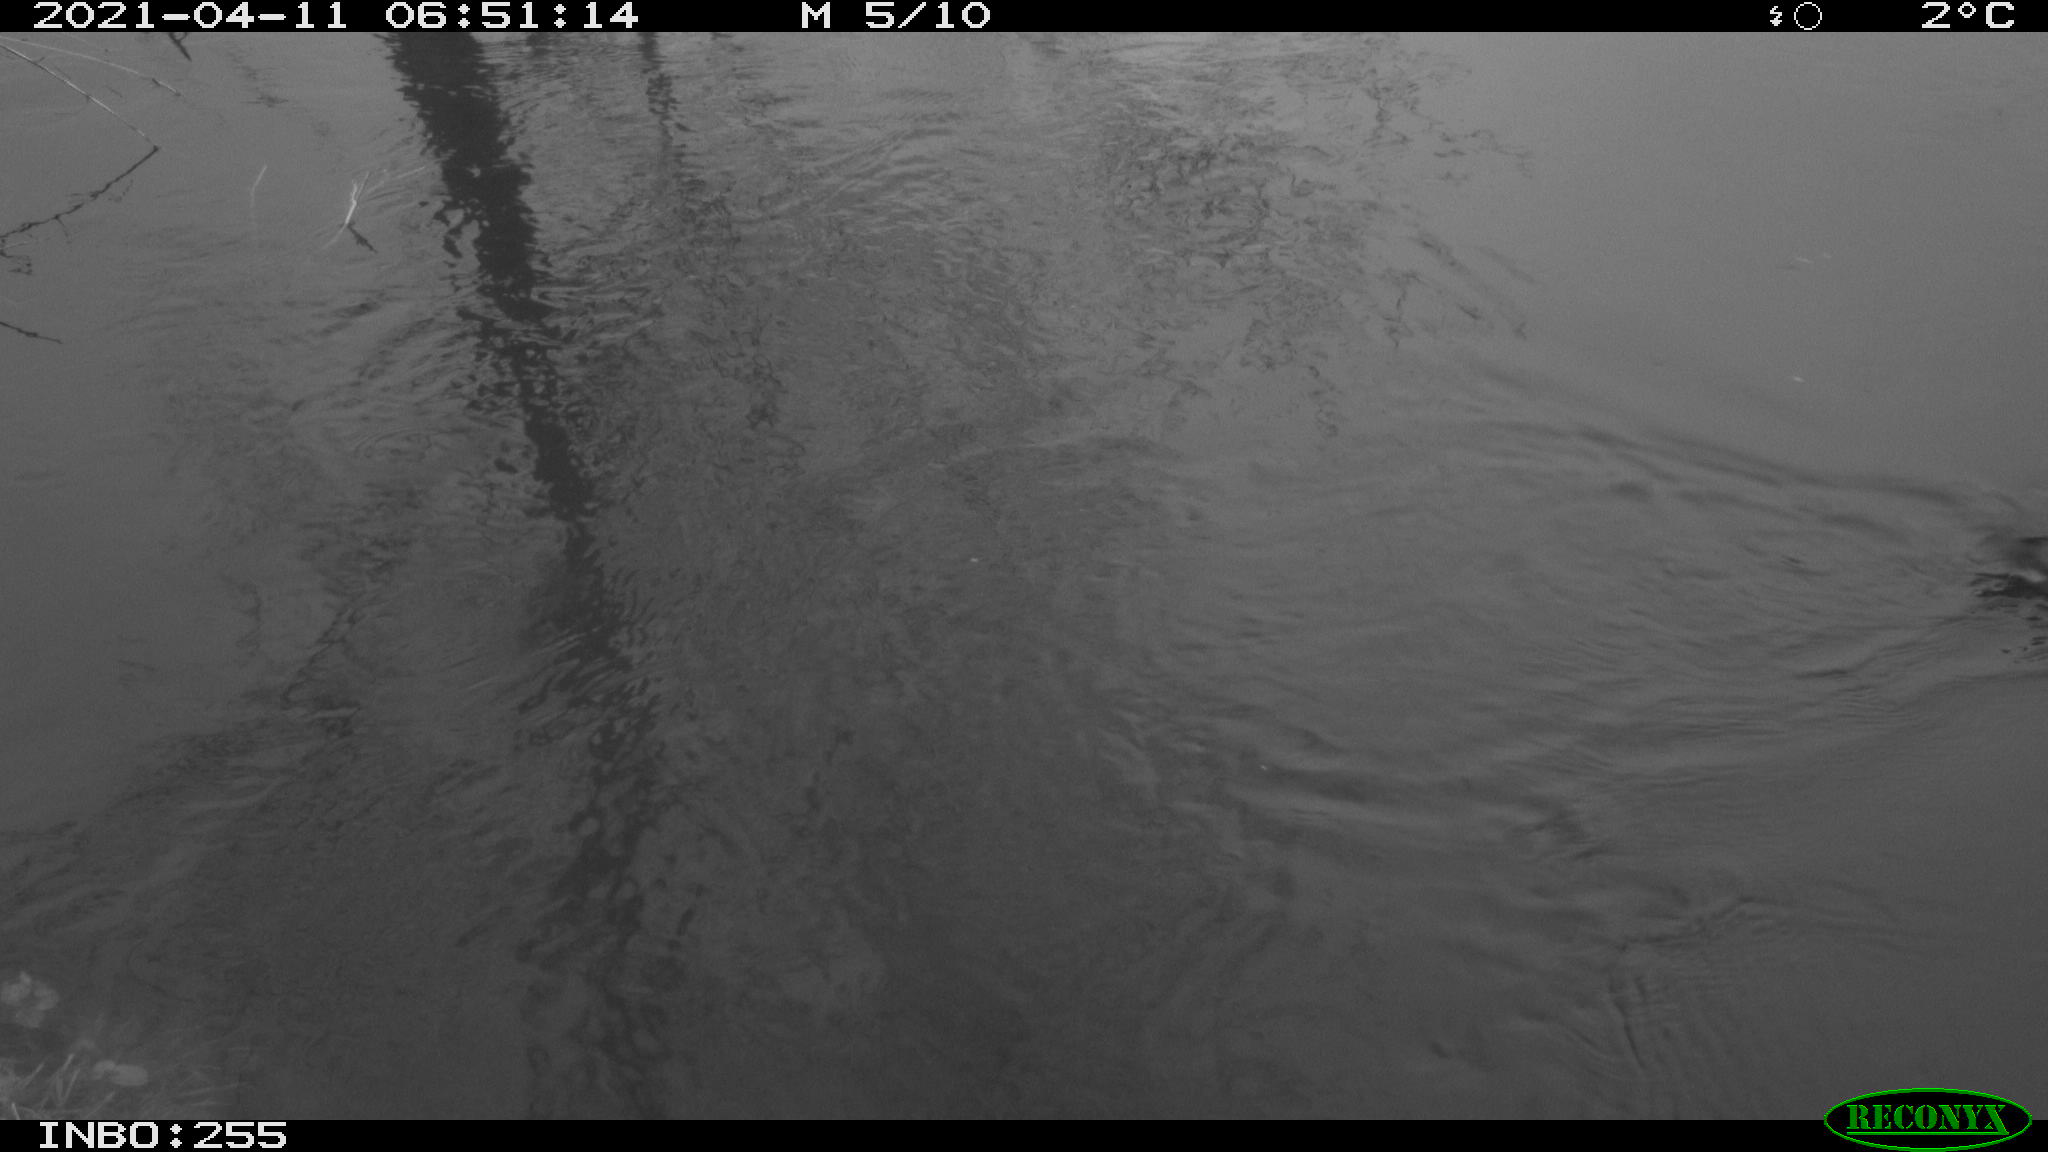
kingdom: Animalia
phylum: Chordata
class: Aves
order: Gruiformes
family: Rallidae
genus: Gallinula
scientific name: Gallinula chloropus
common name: Common moorhen
